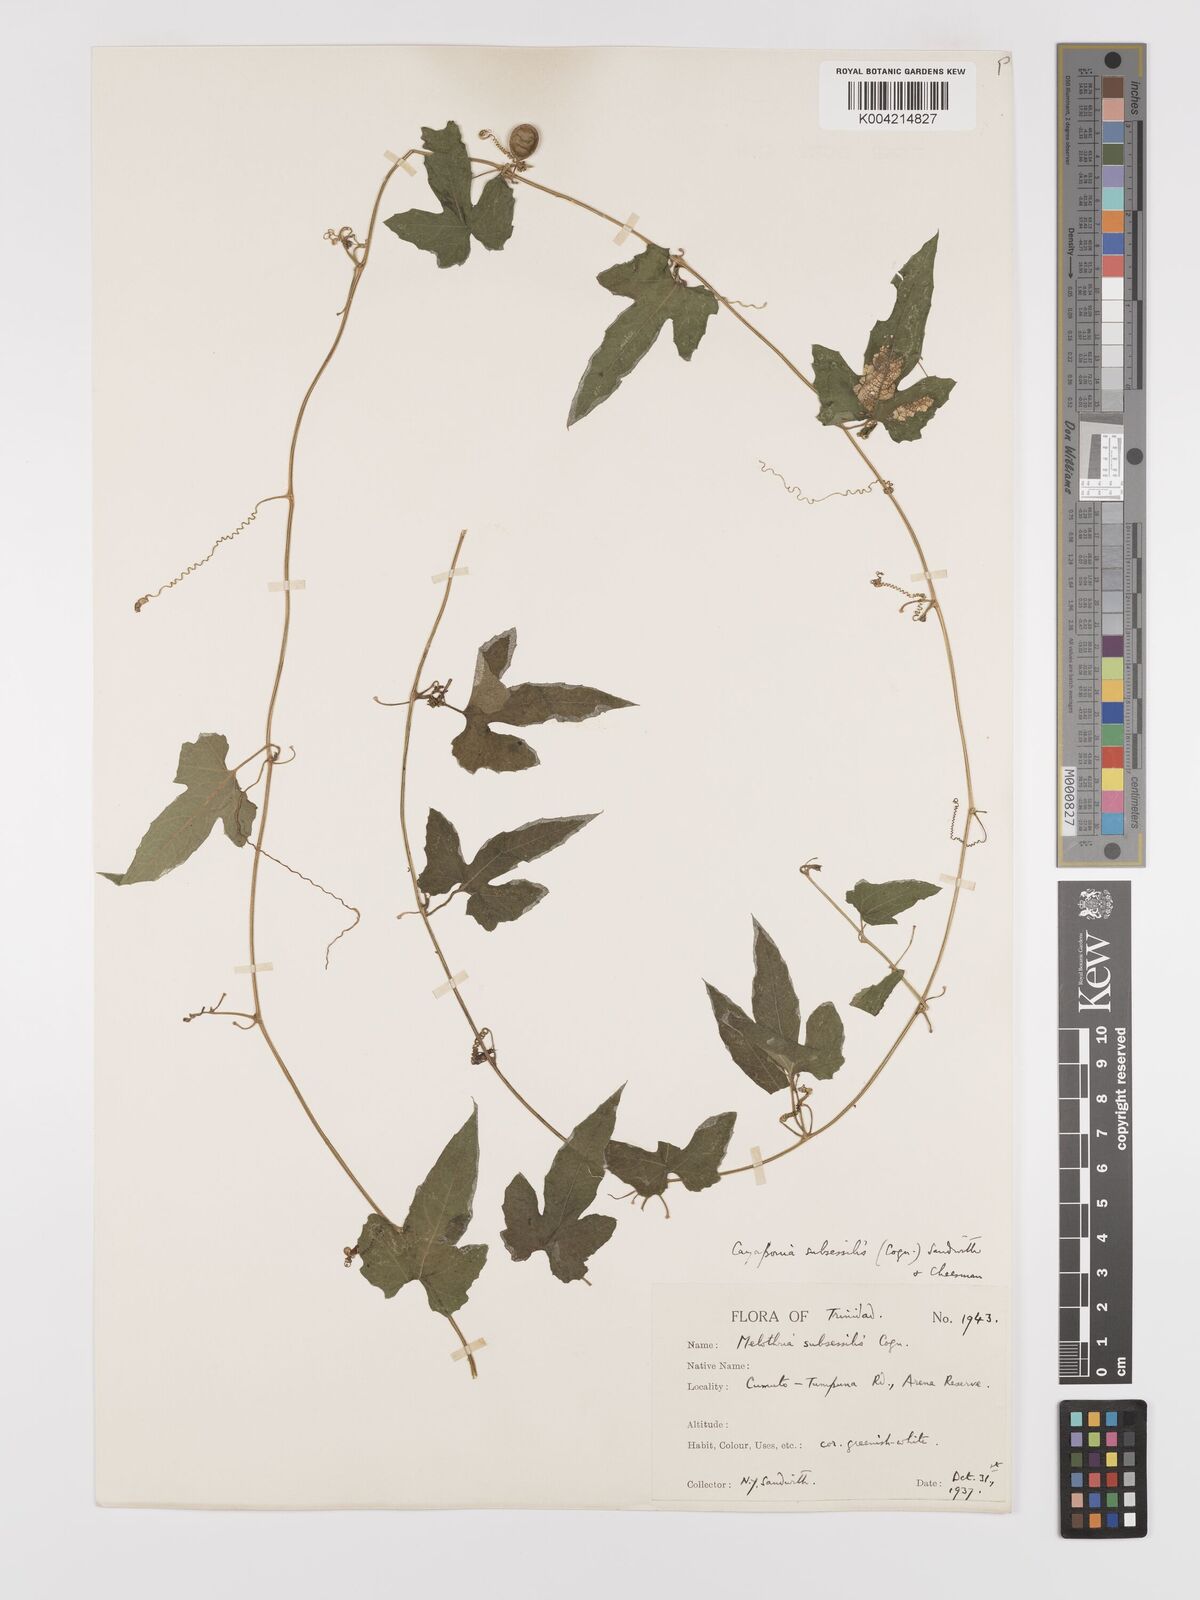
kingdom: Plantae
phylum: Tracheophyta
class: Magnoliopsida
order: Cucurbitales
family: Cucurbitaceae
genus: Cayaponia
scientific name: Cayaponia triangularis
